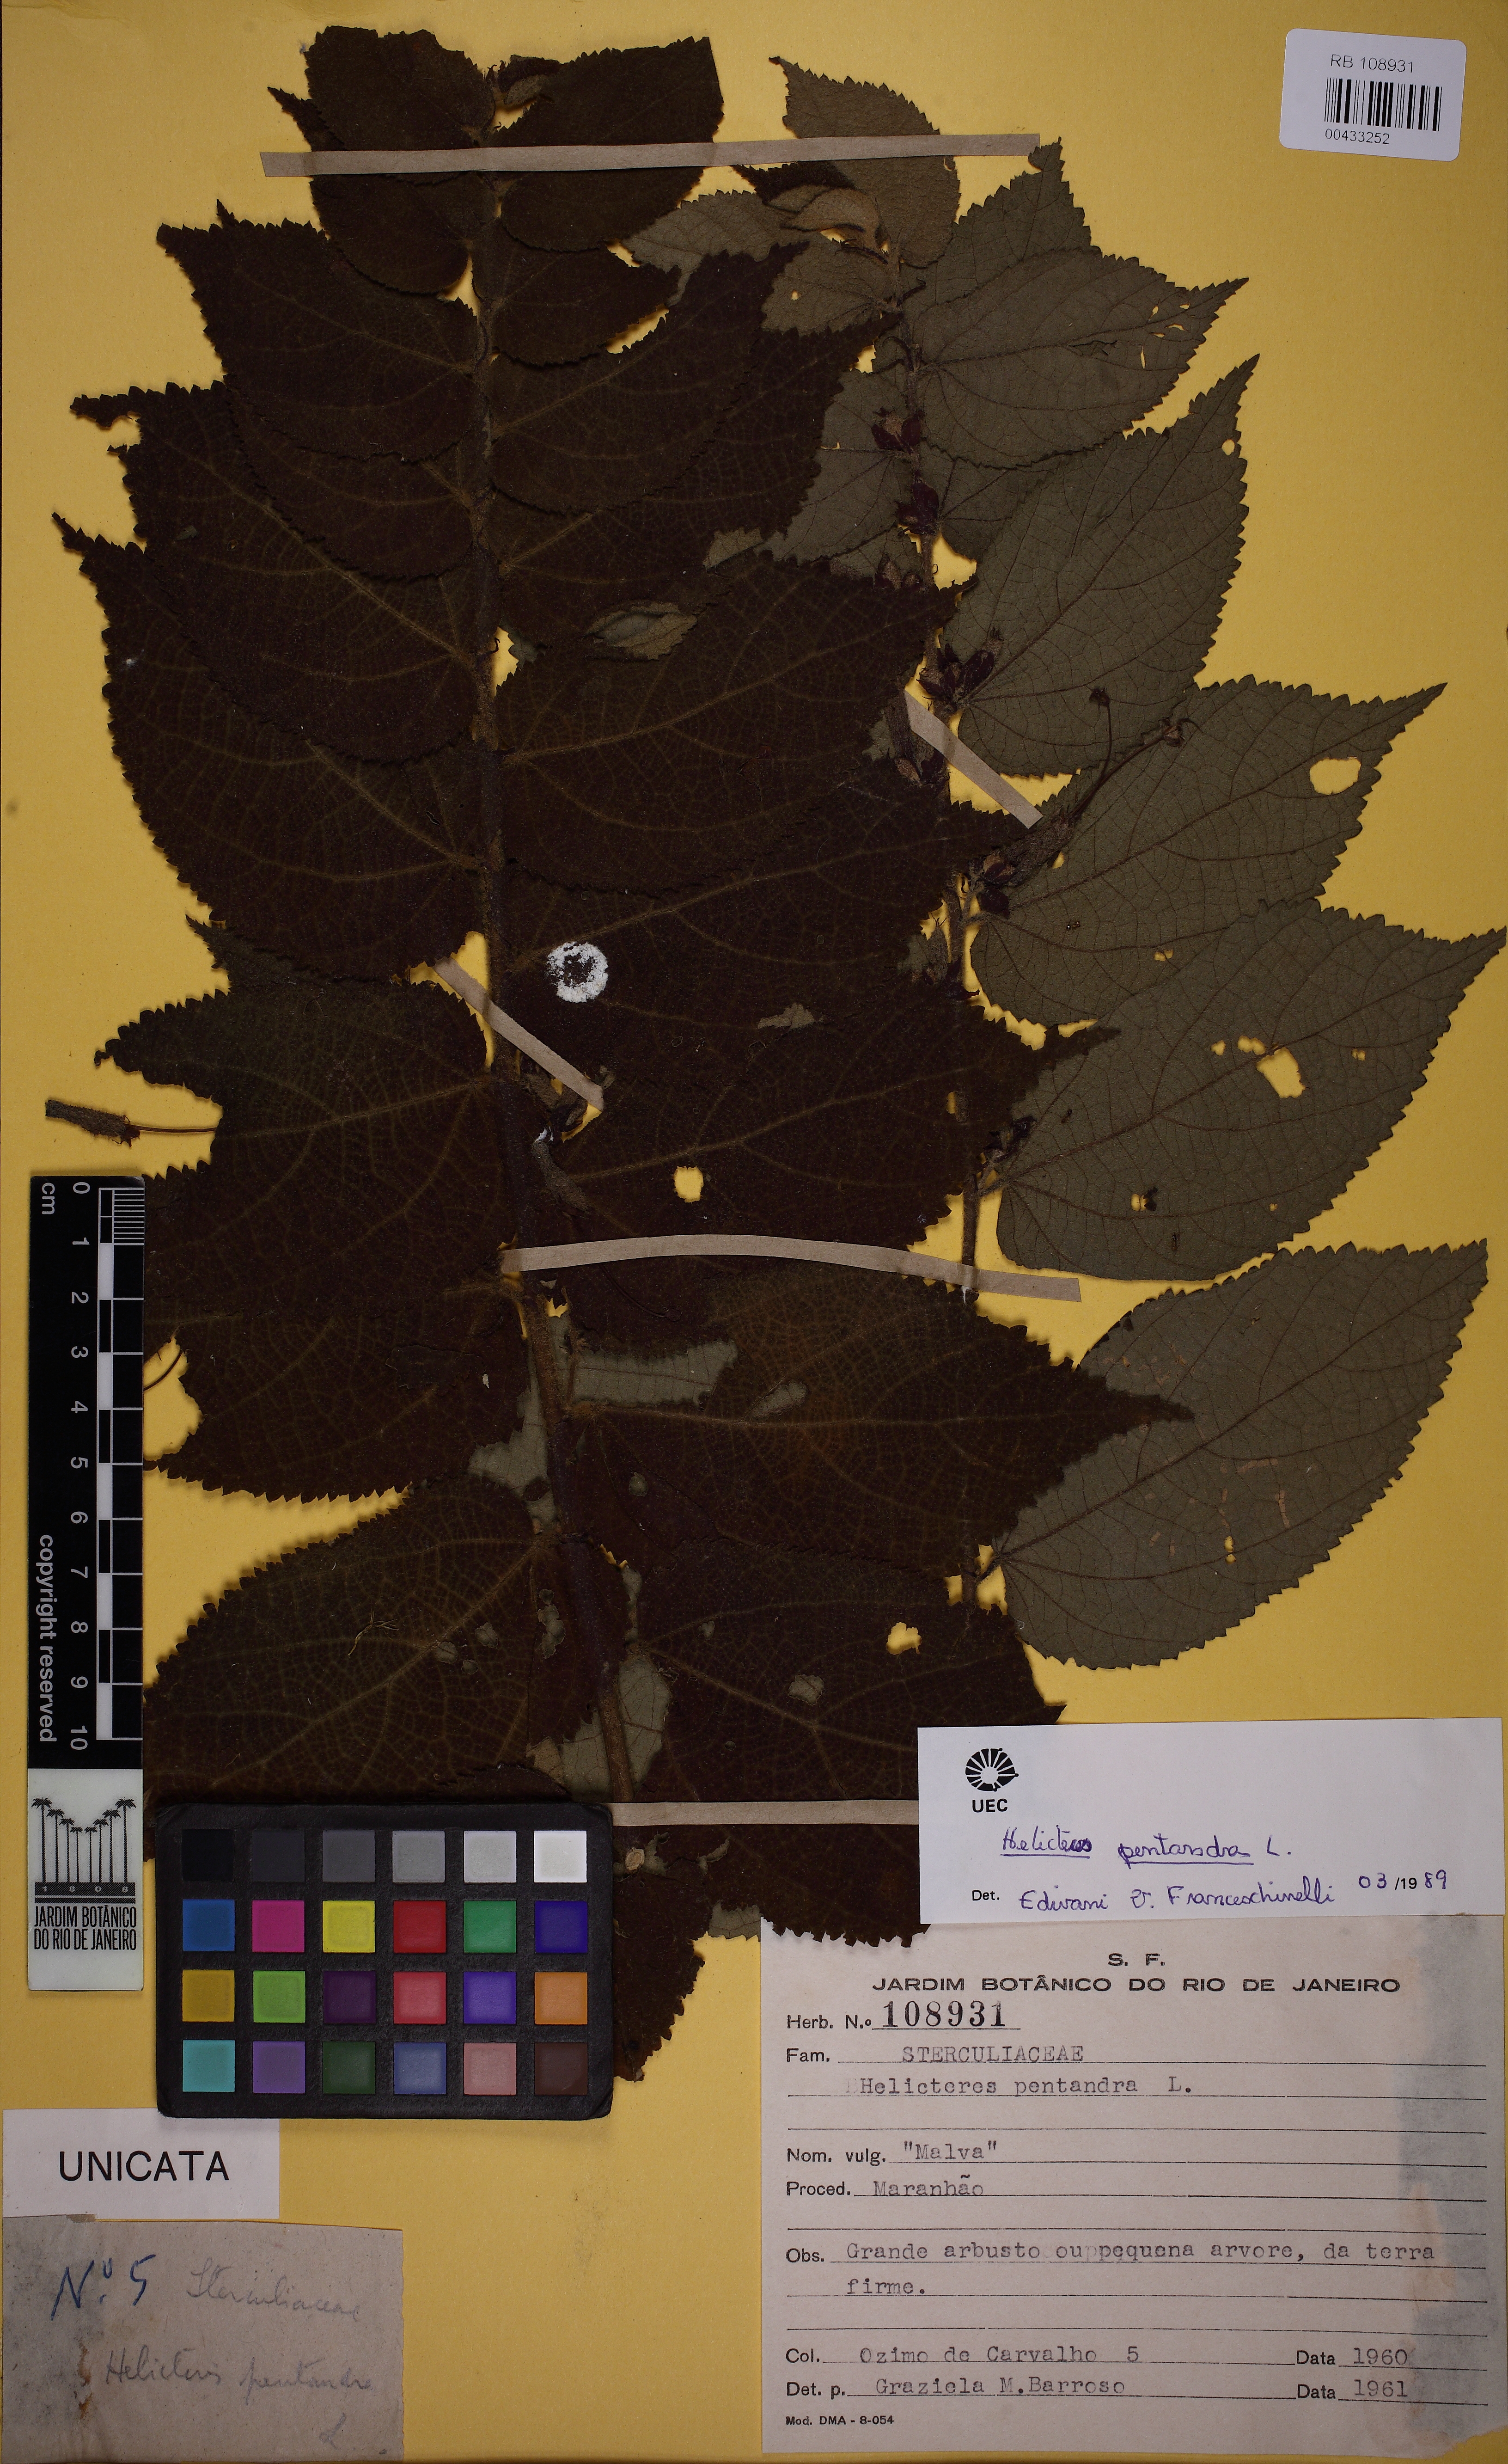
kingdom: Plantae
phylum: Tracheophyta
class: Magnoliopsida
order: Malvales
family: Malvaceae
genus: Helicteres
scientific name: Helicteres pentandra
